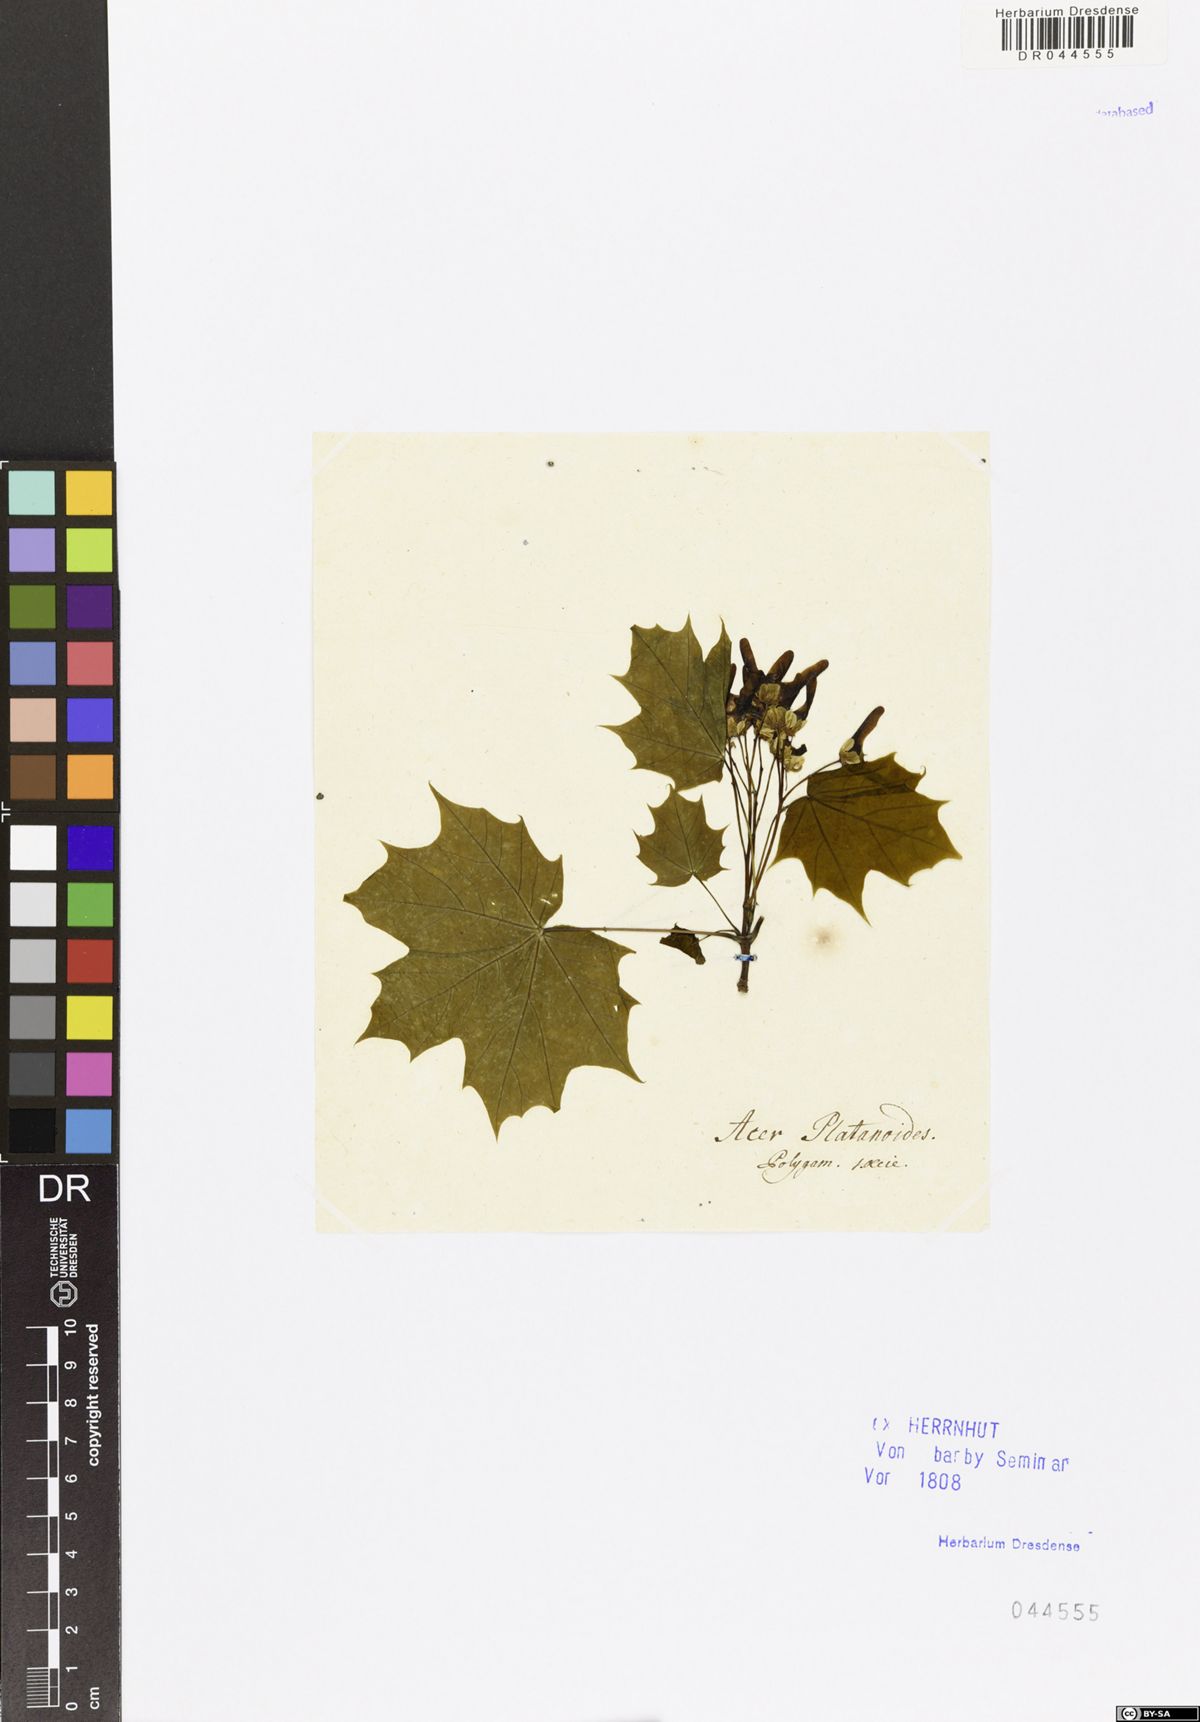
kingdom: Plantae
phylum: Tracheophyta
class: Magnoliopsida
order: Sapindales
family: Sapindaceae
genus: Acer
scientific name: Acer platanoides
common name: Norway maple
